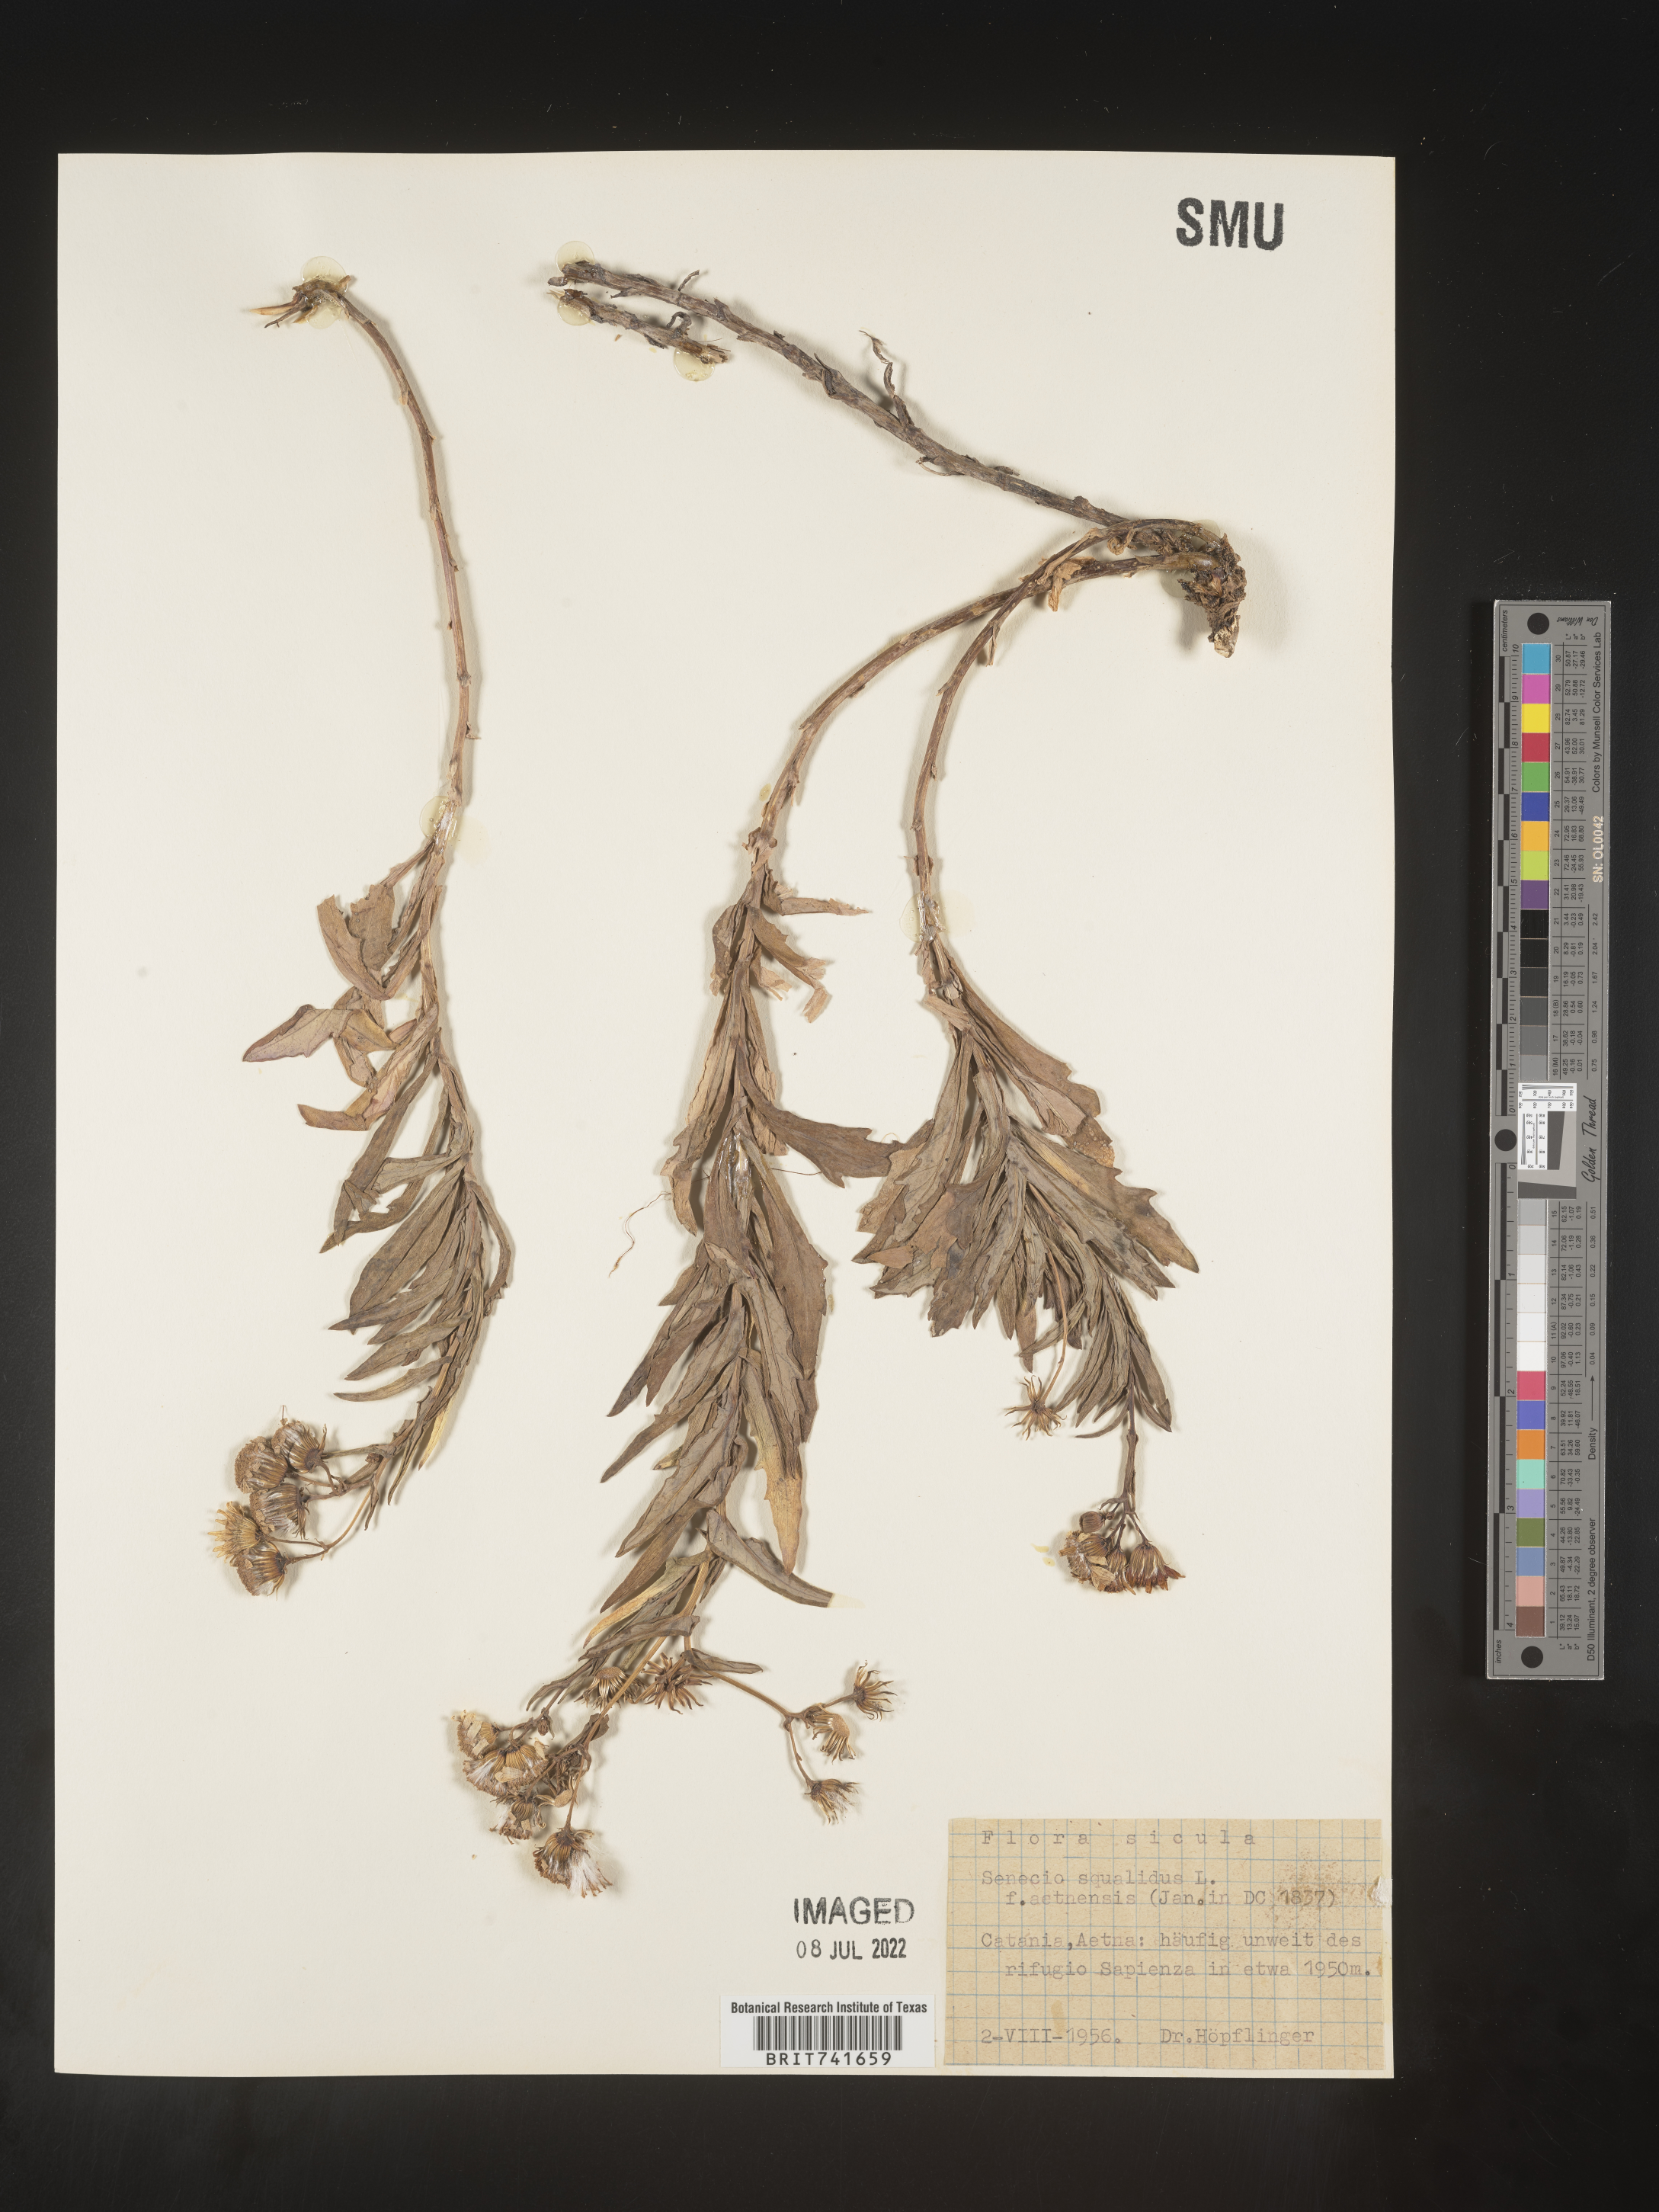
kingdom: Plantae
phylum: Tracheophyta
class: Magnoliopsida
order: Asterales
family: Asteraceae
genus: Senecio
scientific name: Senecio
